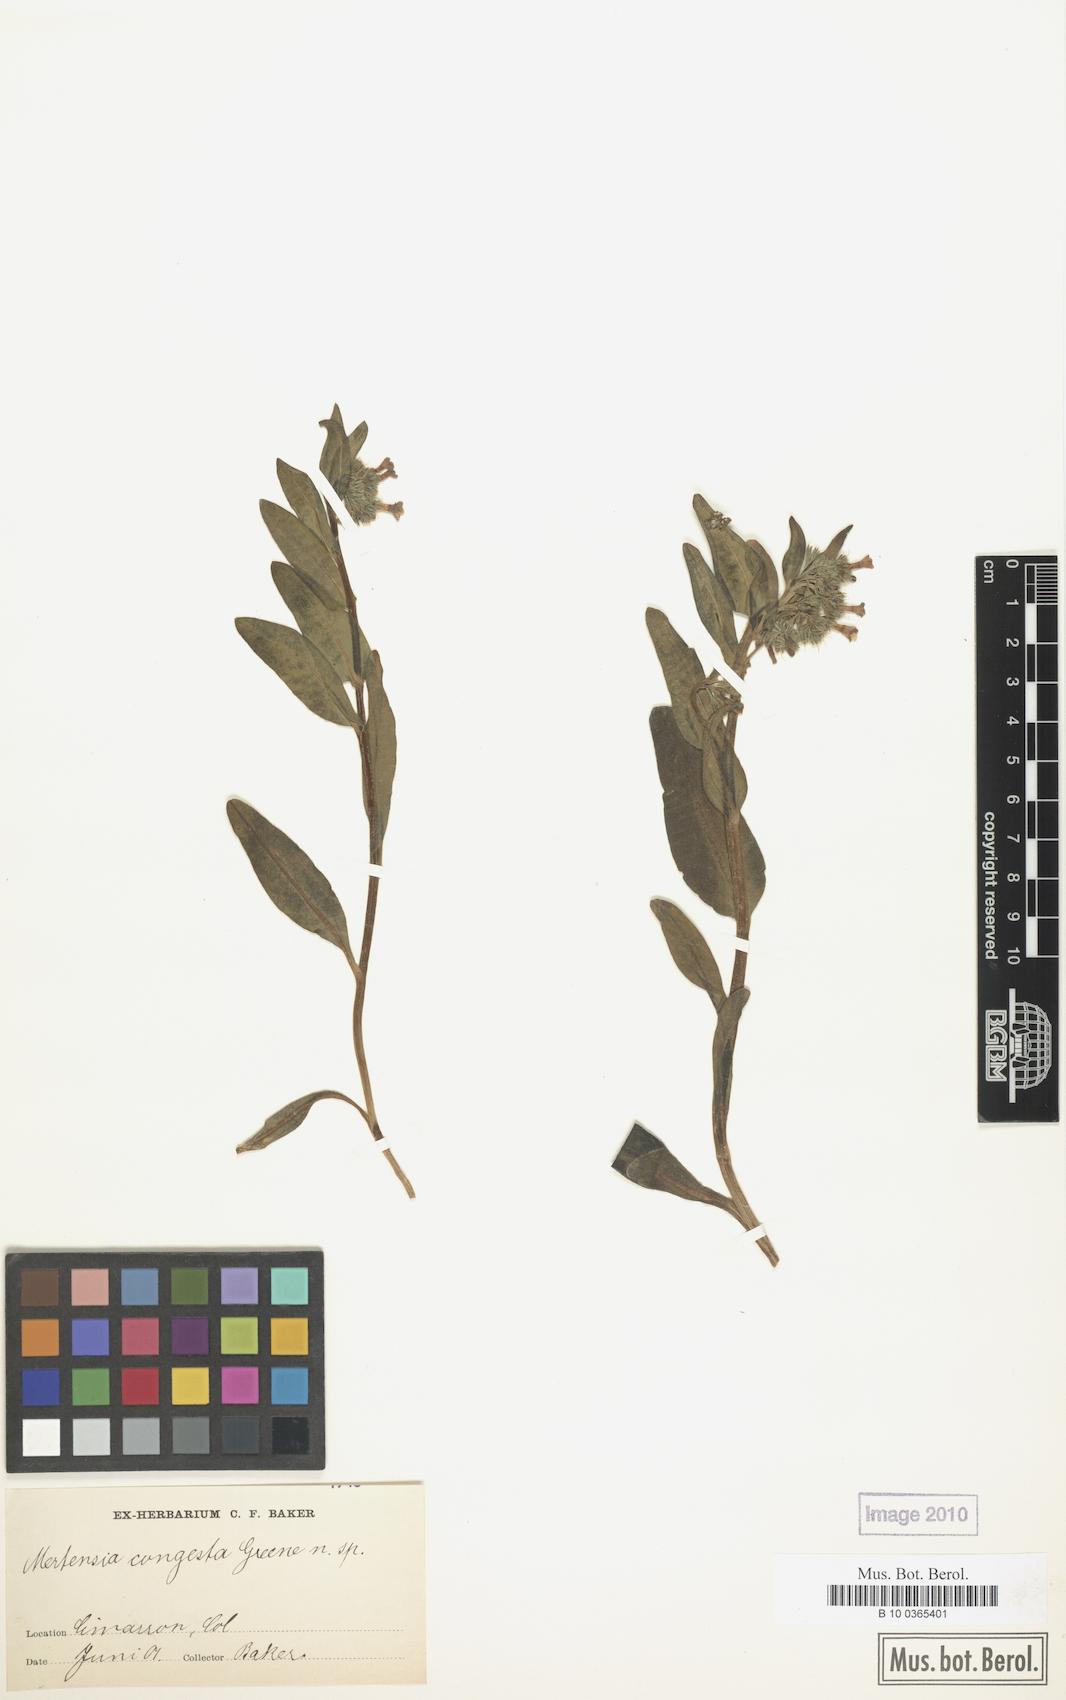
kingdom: Plantae
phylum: Tracheophyta
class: Magnoliopsida
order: Boraginales
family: Boraginaceae
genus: Mertensia
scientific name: Mertensia brevistyla
